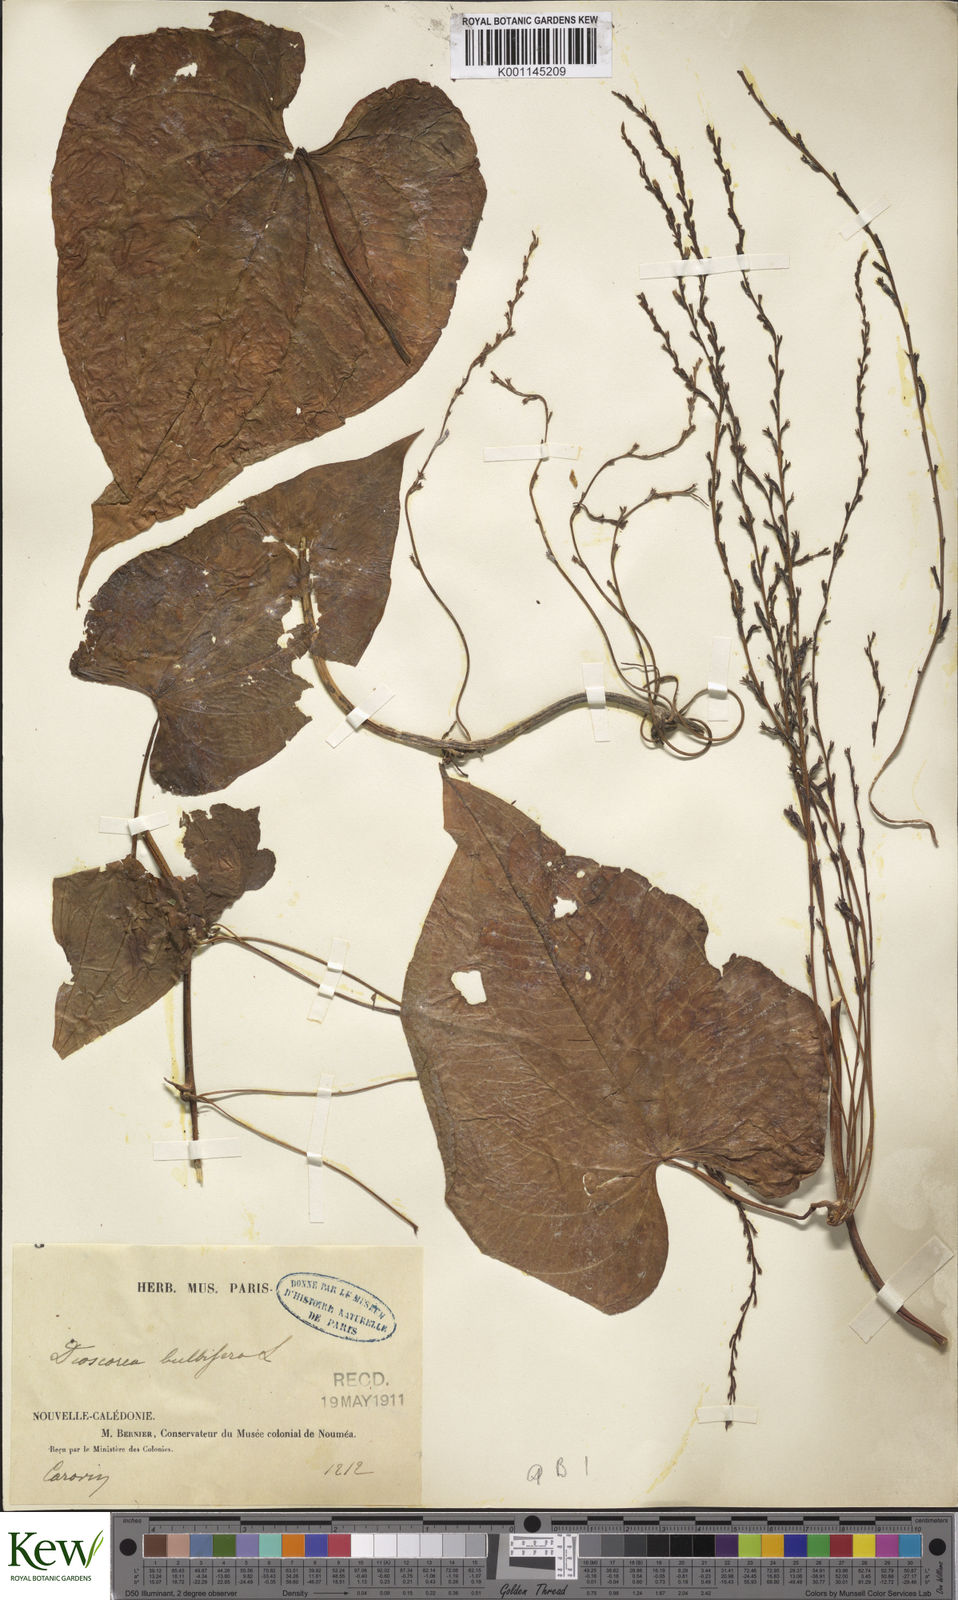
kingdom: Plantae
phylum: Tracheophyta
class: Liliopsida
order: Dioscoreales
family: Dioscoreaceae
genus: Dioscorea
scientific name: Dioscorea bulbifera
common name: Air yam
